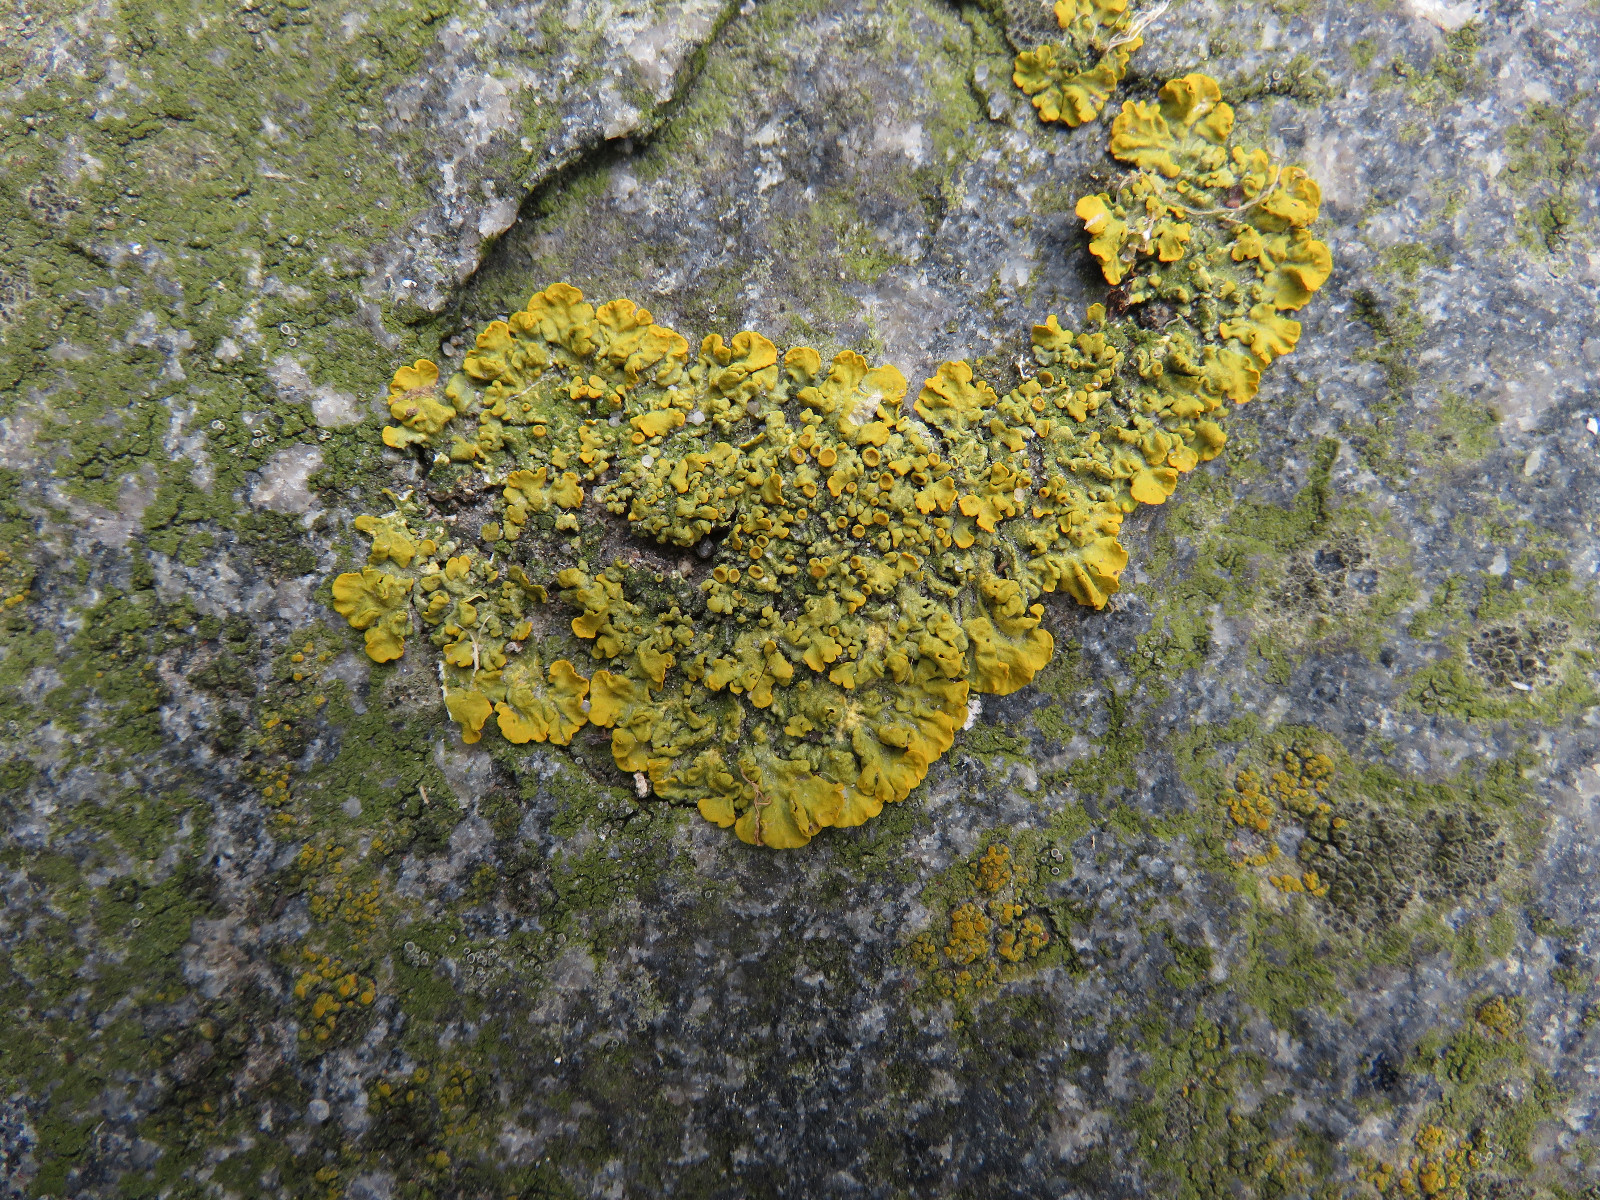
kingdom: Fungi
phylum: Ascomycota
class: Lecanoromycetes
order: Teloschistales
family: Teloschistaceae
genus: Xanthoria
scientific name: Xanthoria parietina
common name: almindelig væggelav
